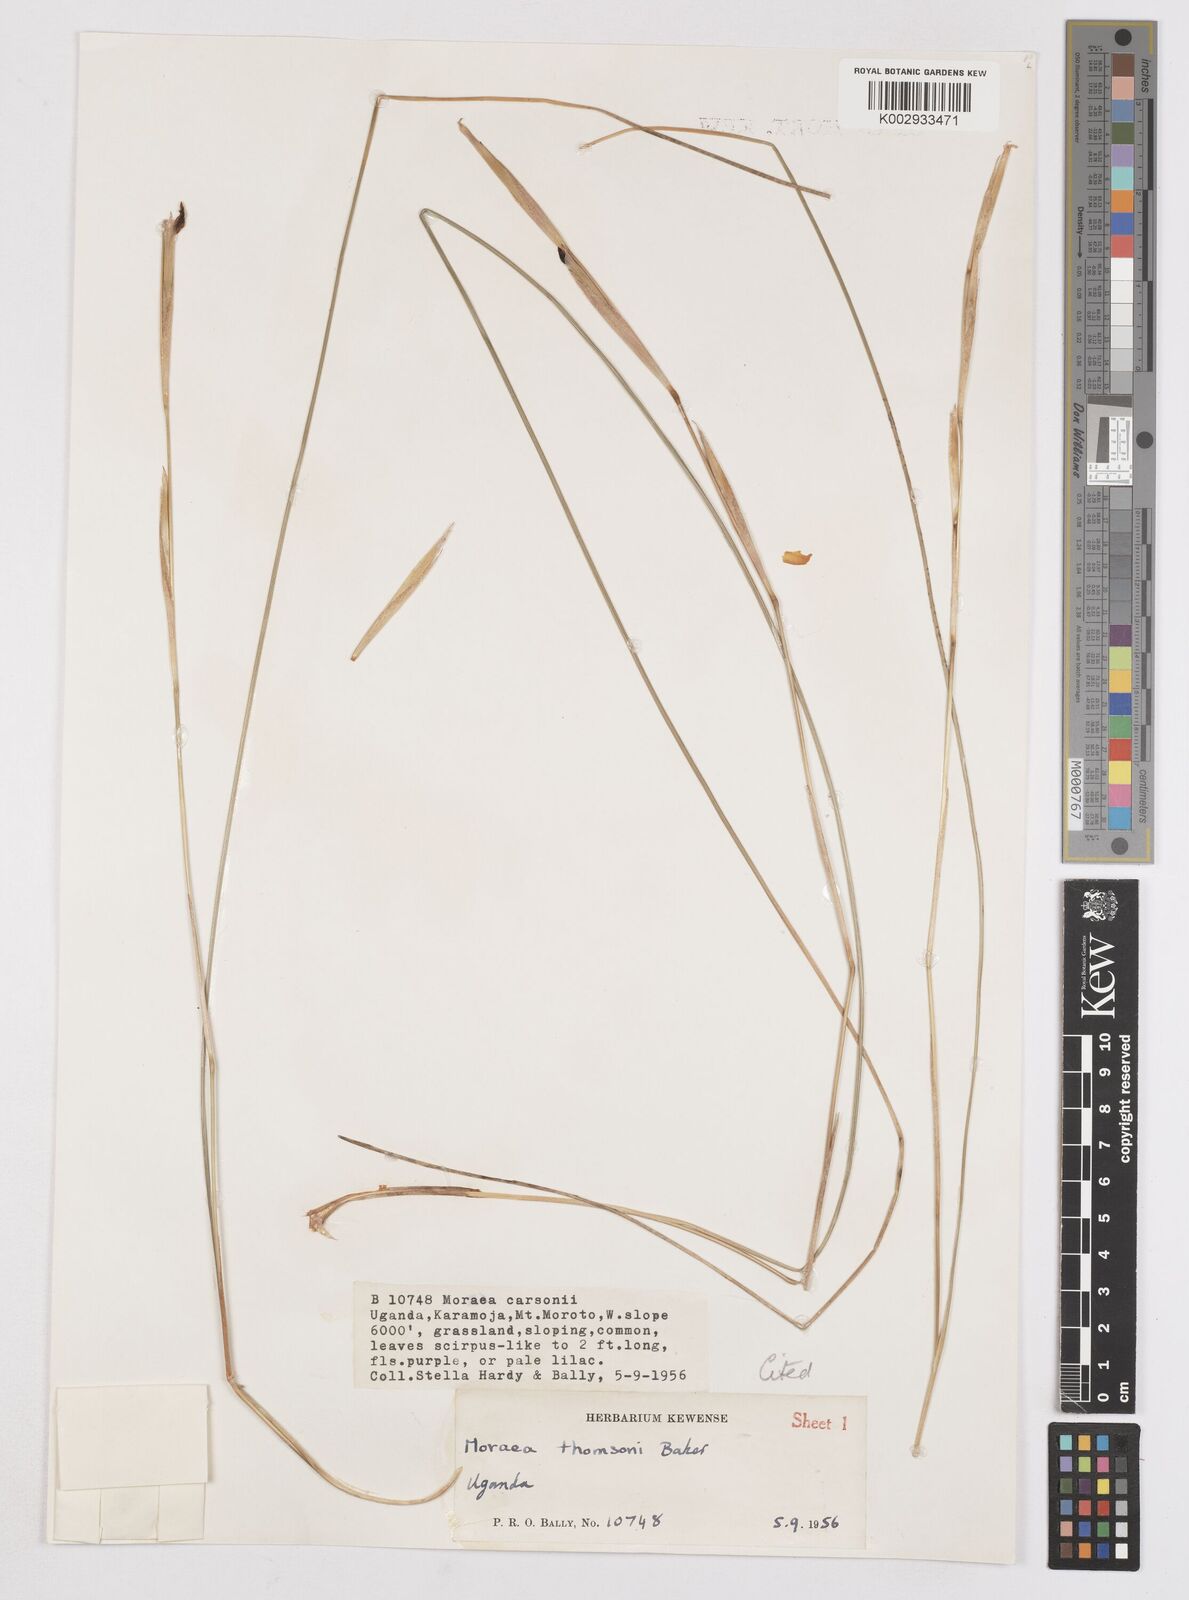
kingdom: Plantae
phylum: Tracheophyta
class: Liliopsida
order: Asparagales
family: Iridaceae
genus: Moraea
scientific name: Moraea stricta
